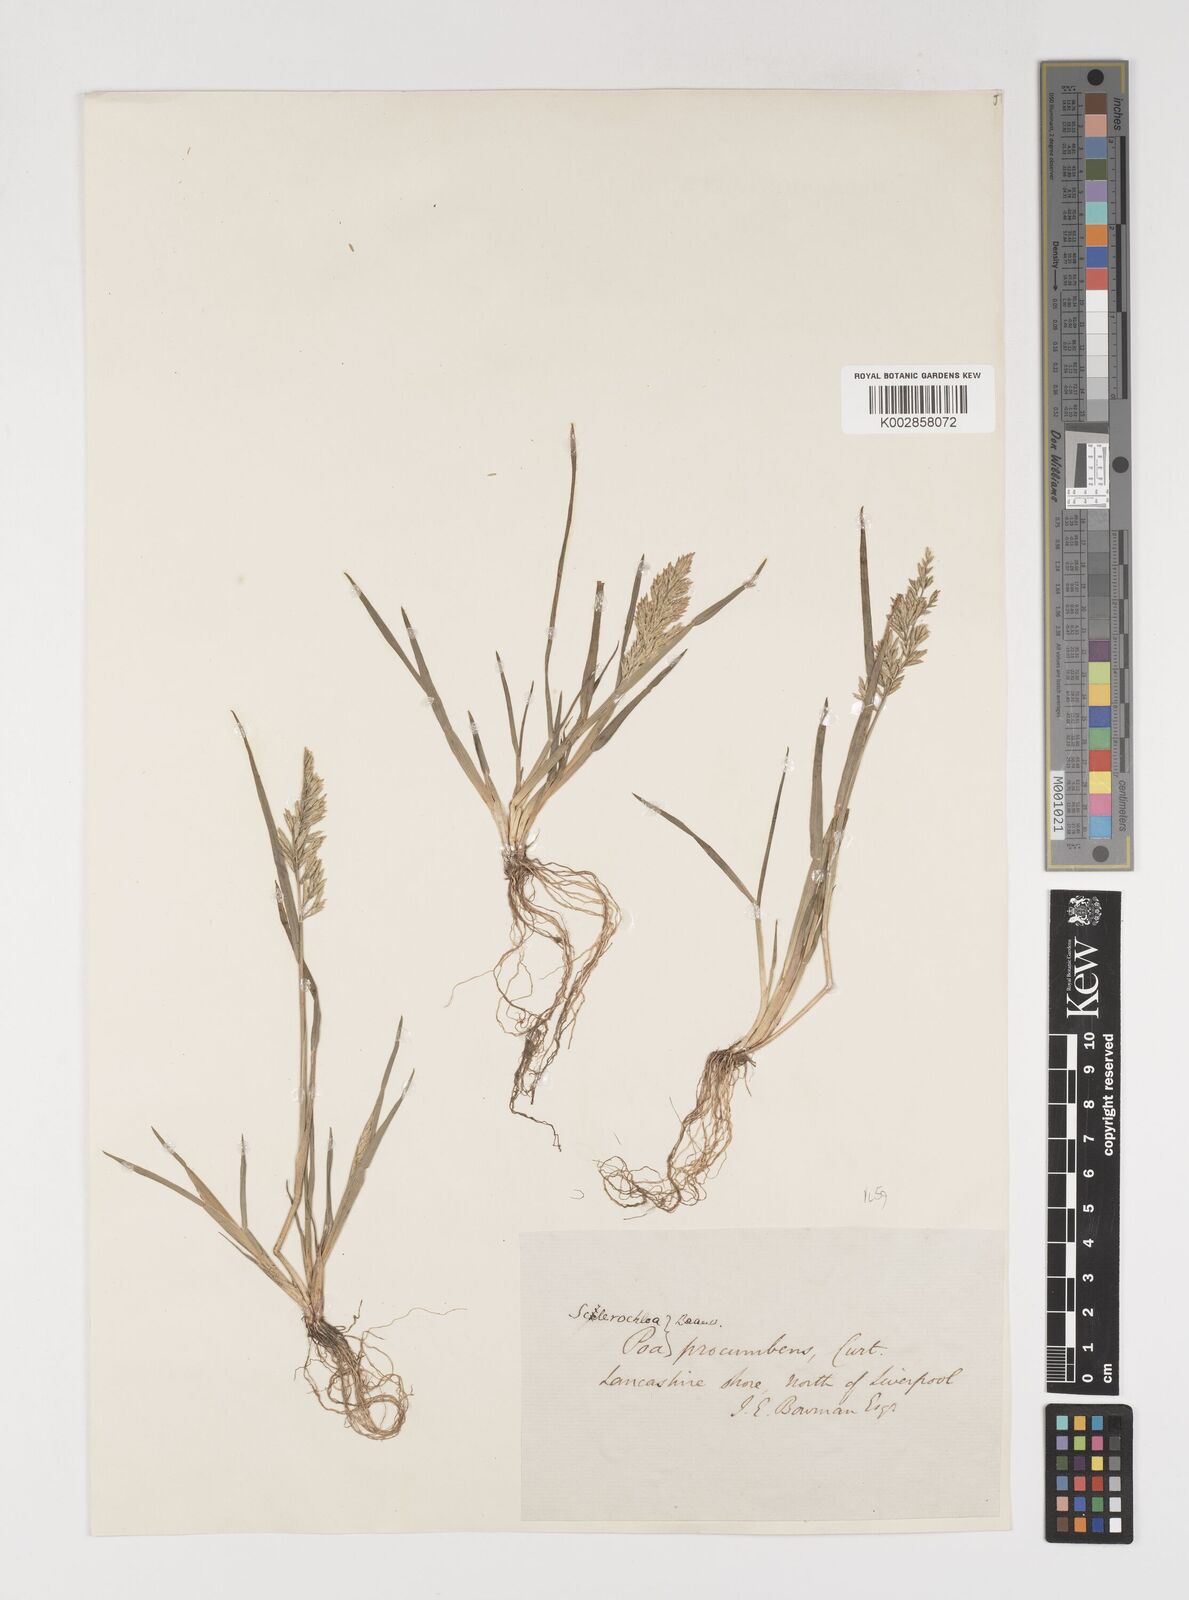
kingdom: Plantae
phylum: Tracheophyta
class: Liliopsida
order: Poales
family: Poaceae
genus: Puccinellia
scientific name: Puccinellia rupestris
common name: Stiff saltmarsh-grass
